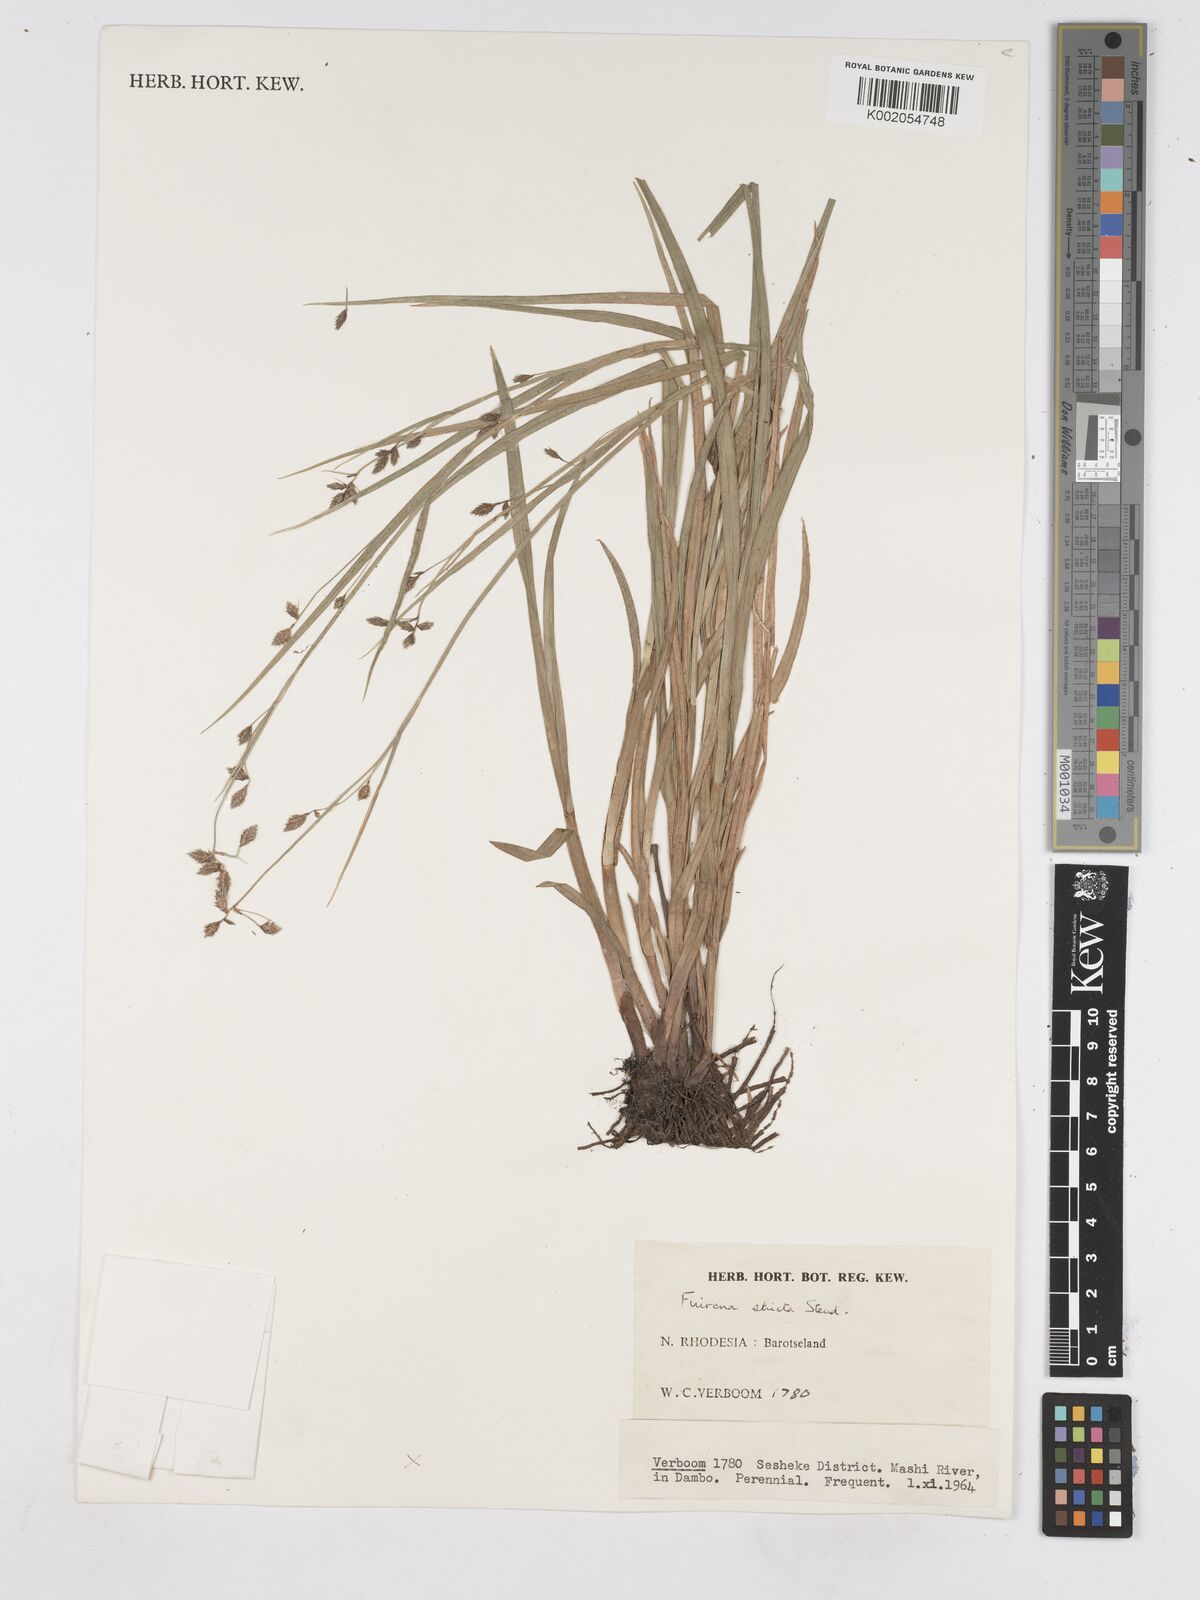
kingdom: Plantae
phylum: Tracheophyta
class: Liliopsida
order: Poales
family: Cyperaceae
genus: Fuirena
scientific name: Fuirena stricta
